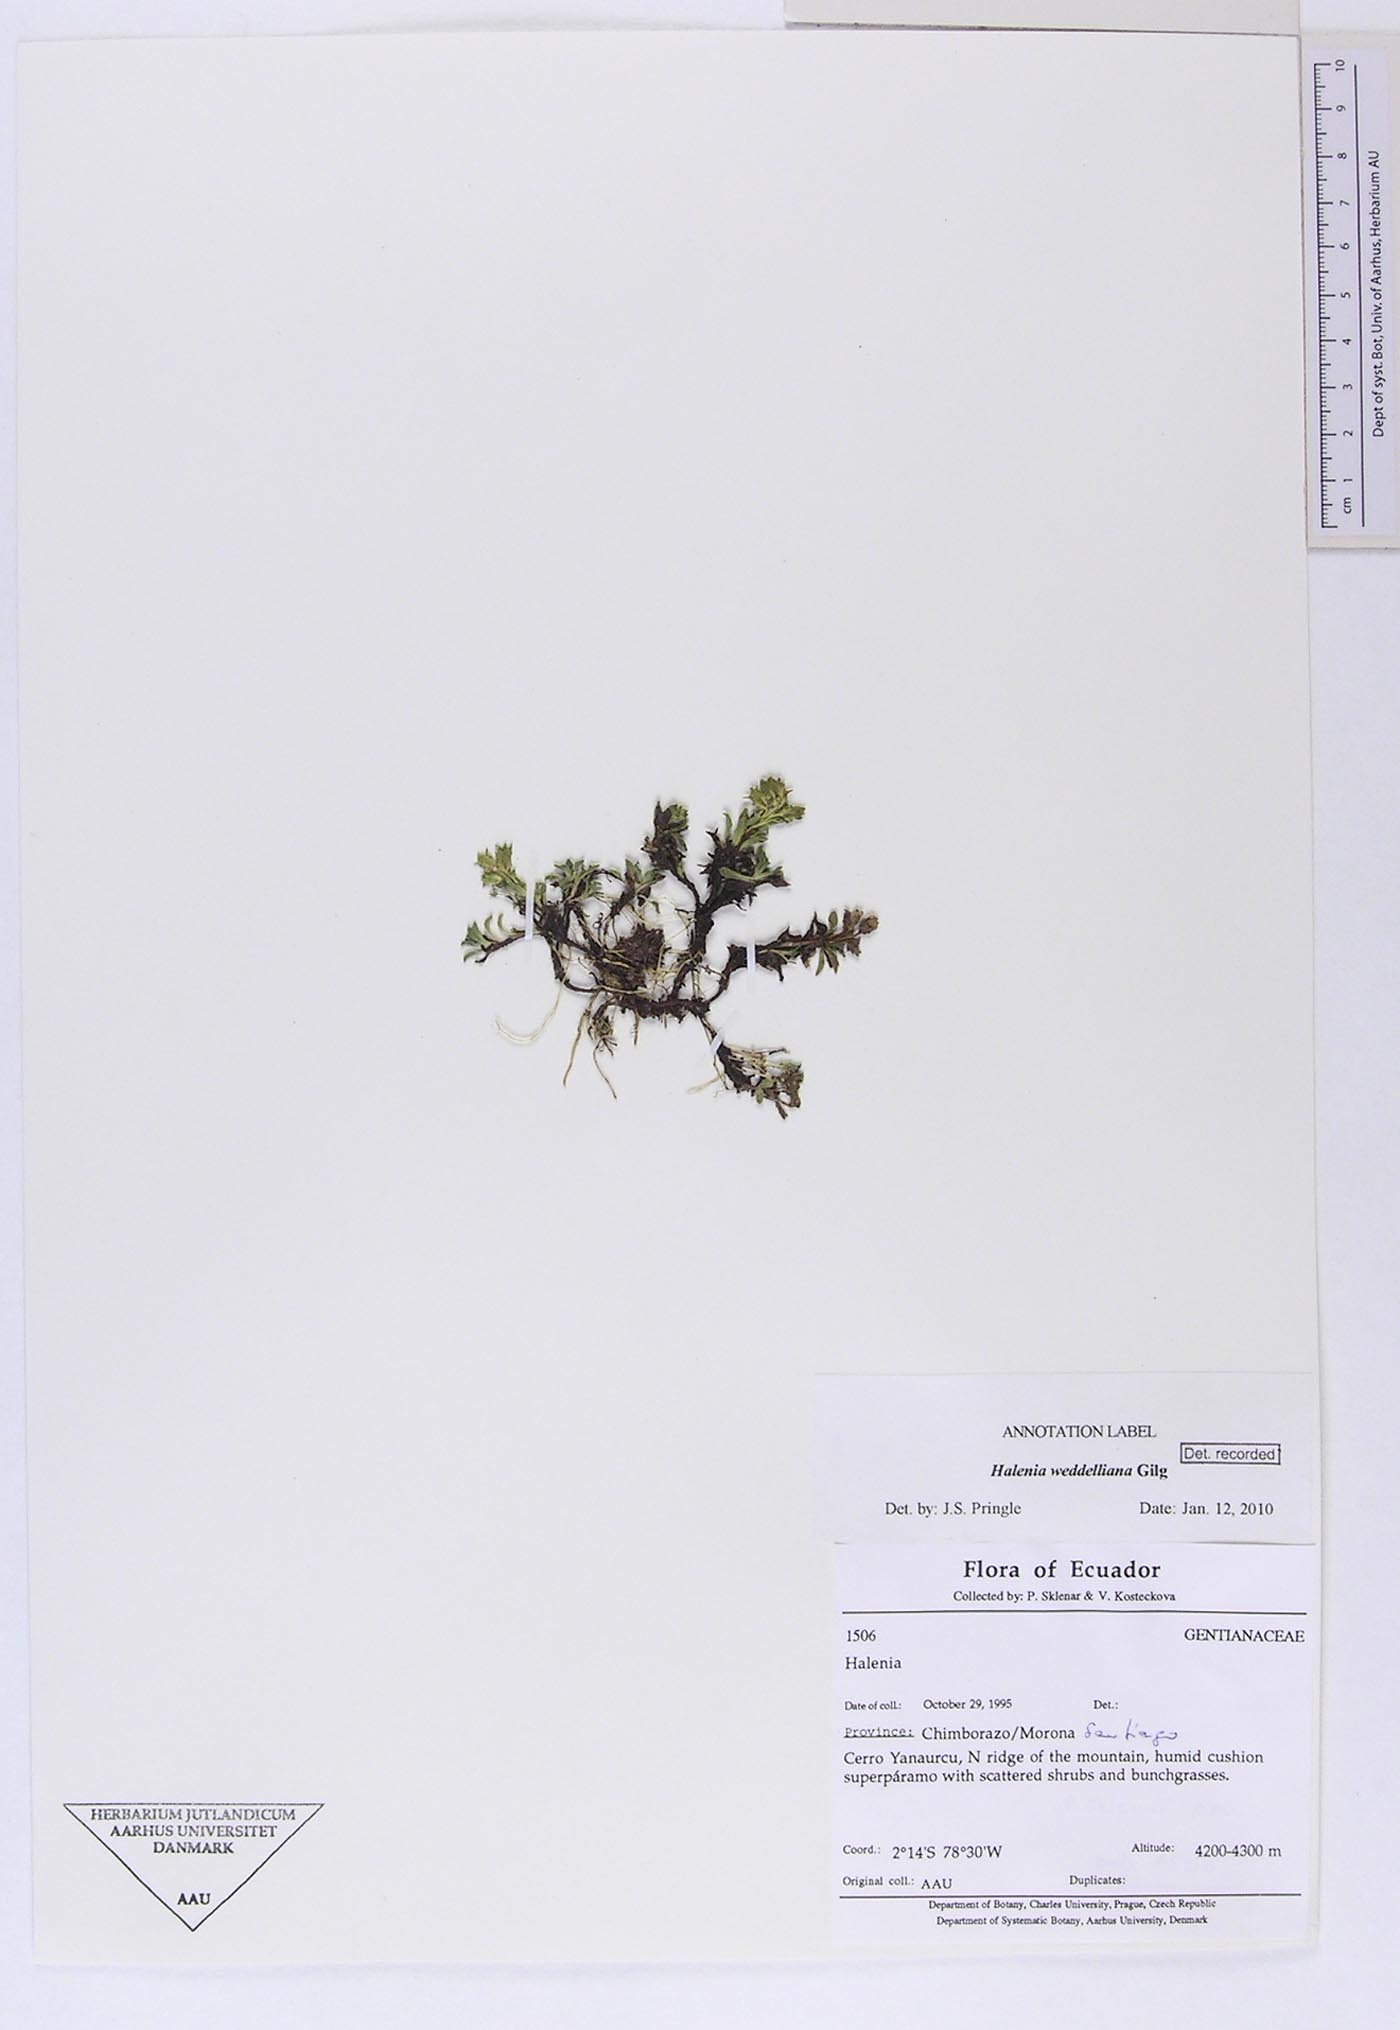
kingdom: Plantae
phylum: Tracheophyta
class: Magnoliopsida
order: Gentianales
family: Gentianaceae
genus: Halenia
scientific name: Halenia weddelliana
